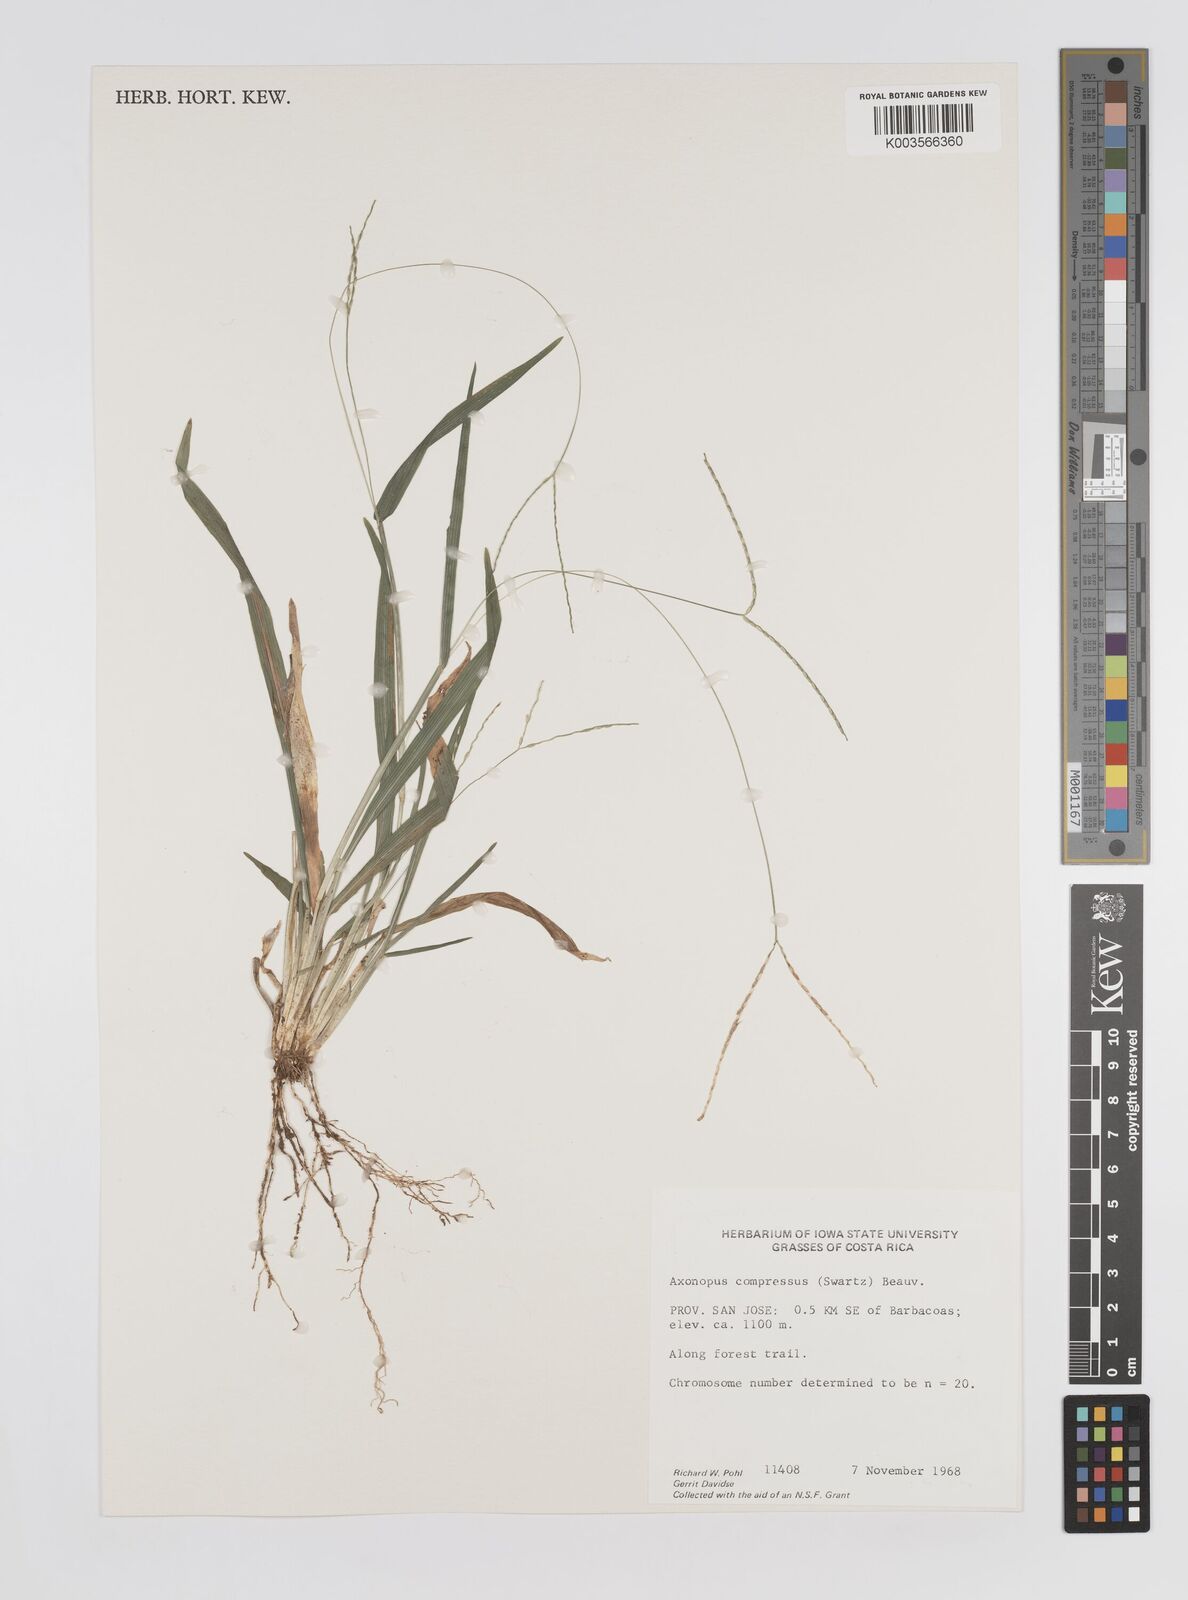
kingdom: Plantae
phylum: Tracheophyta
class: Liliopsida
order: Poales
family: Poaceae
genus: Axonopus
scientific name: Axonopus compressus
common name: American carpet grass
